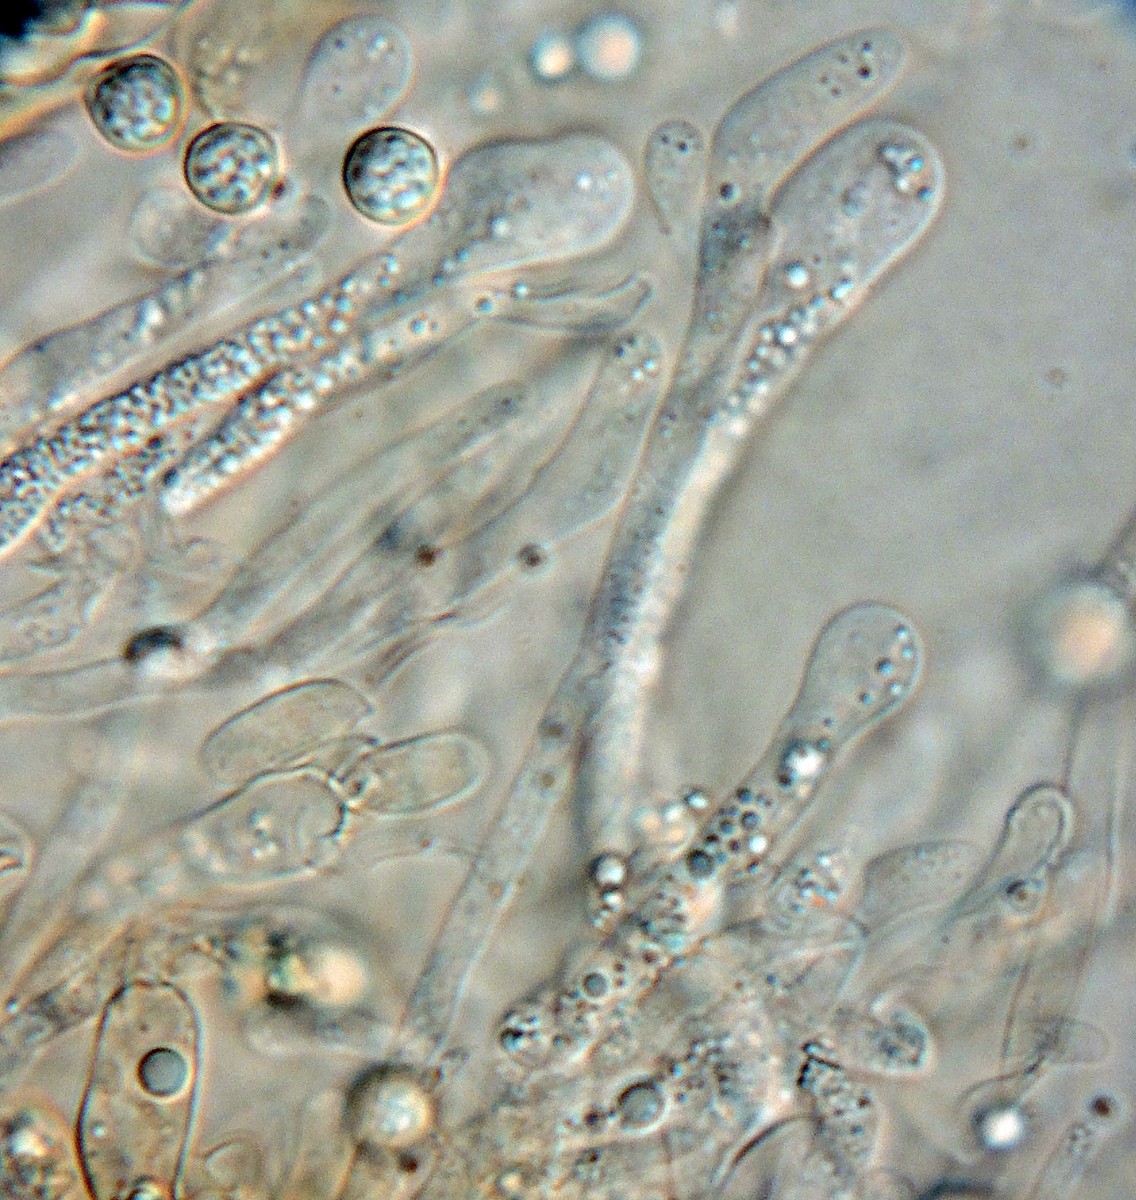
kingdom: Fungi
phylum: Basidiomycota
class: Agaricomycetes
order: Atheliales
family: Atheliaceae
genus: Byssocorticium
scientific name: Byssocorticium pulchrum
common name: smuk førnehinde
